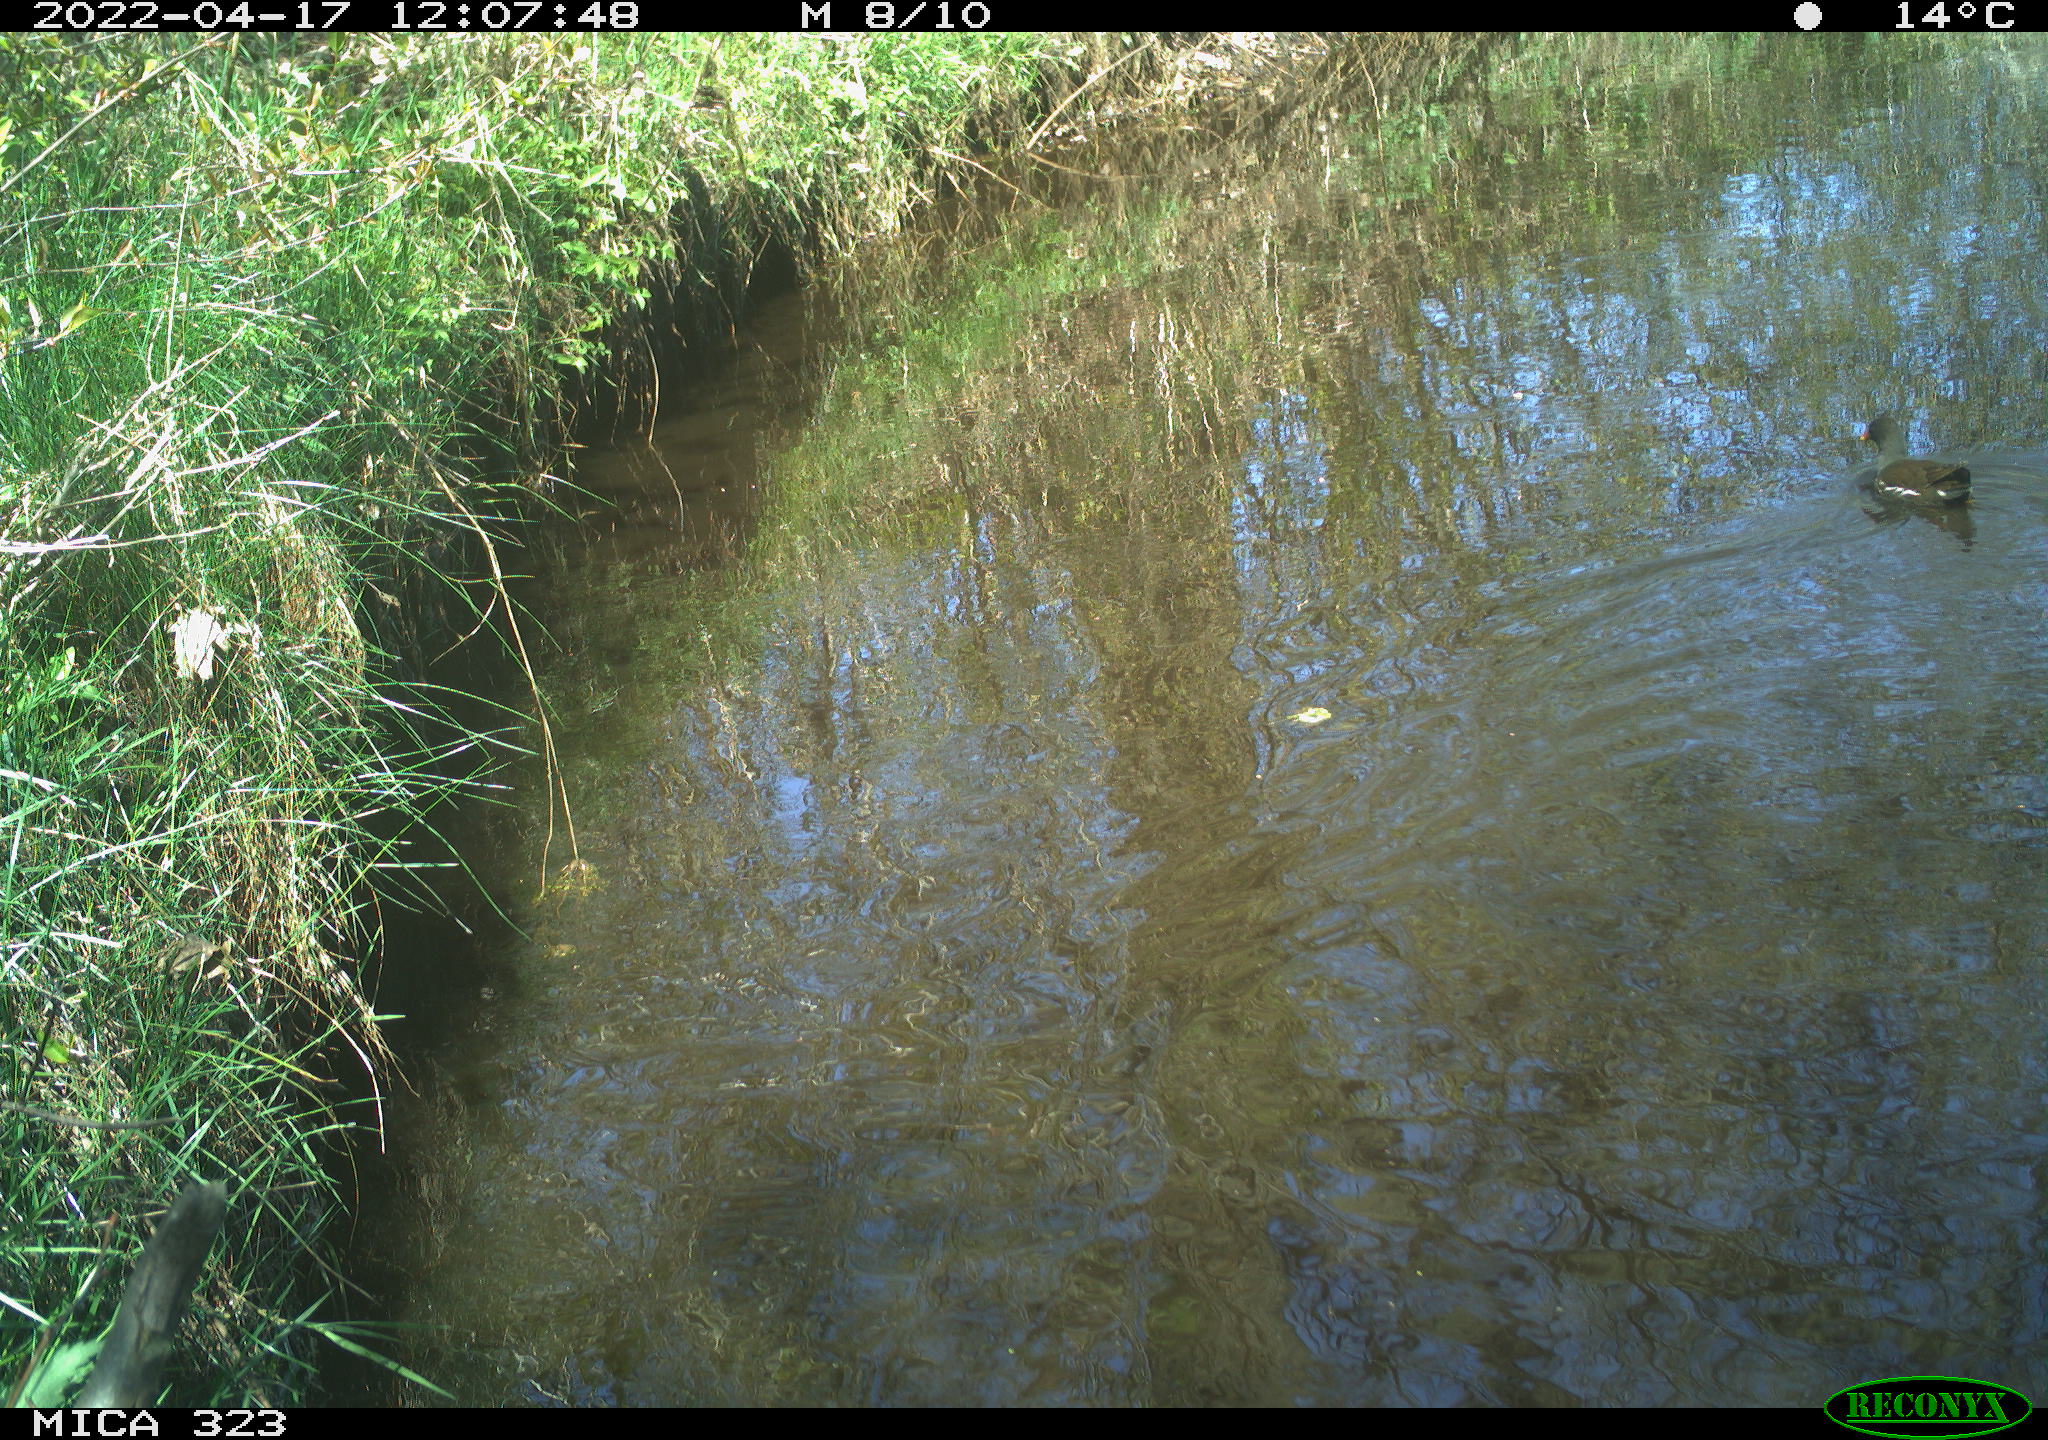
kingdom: Animalia
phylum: Chordata
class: Aves
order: Gruiformes
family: Rallidae
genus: Gallinula
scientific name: Gallinula chloropus
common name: Common moorhen
